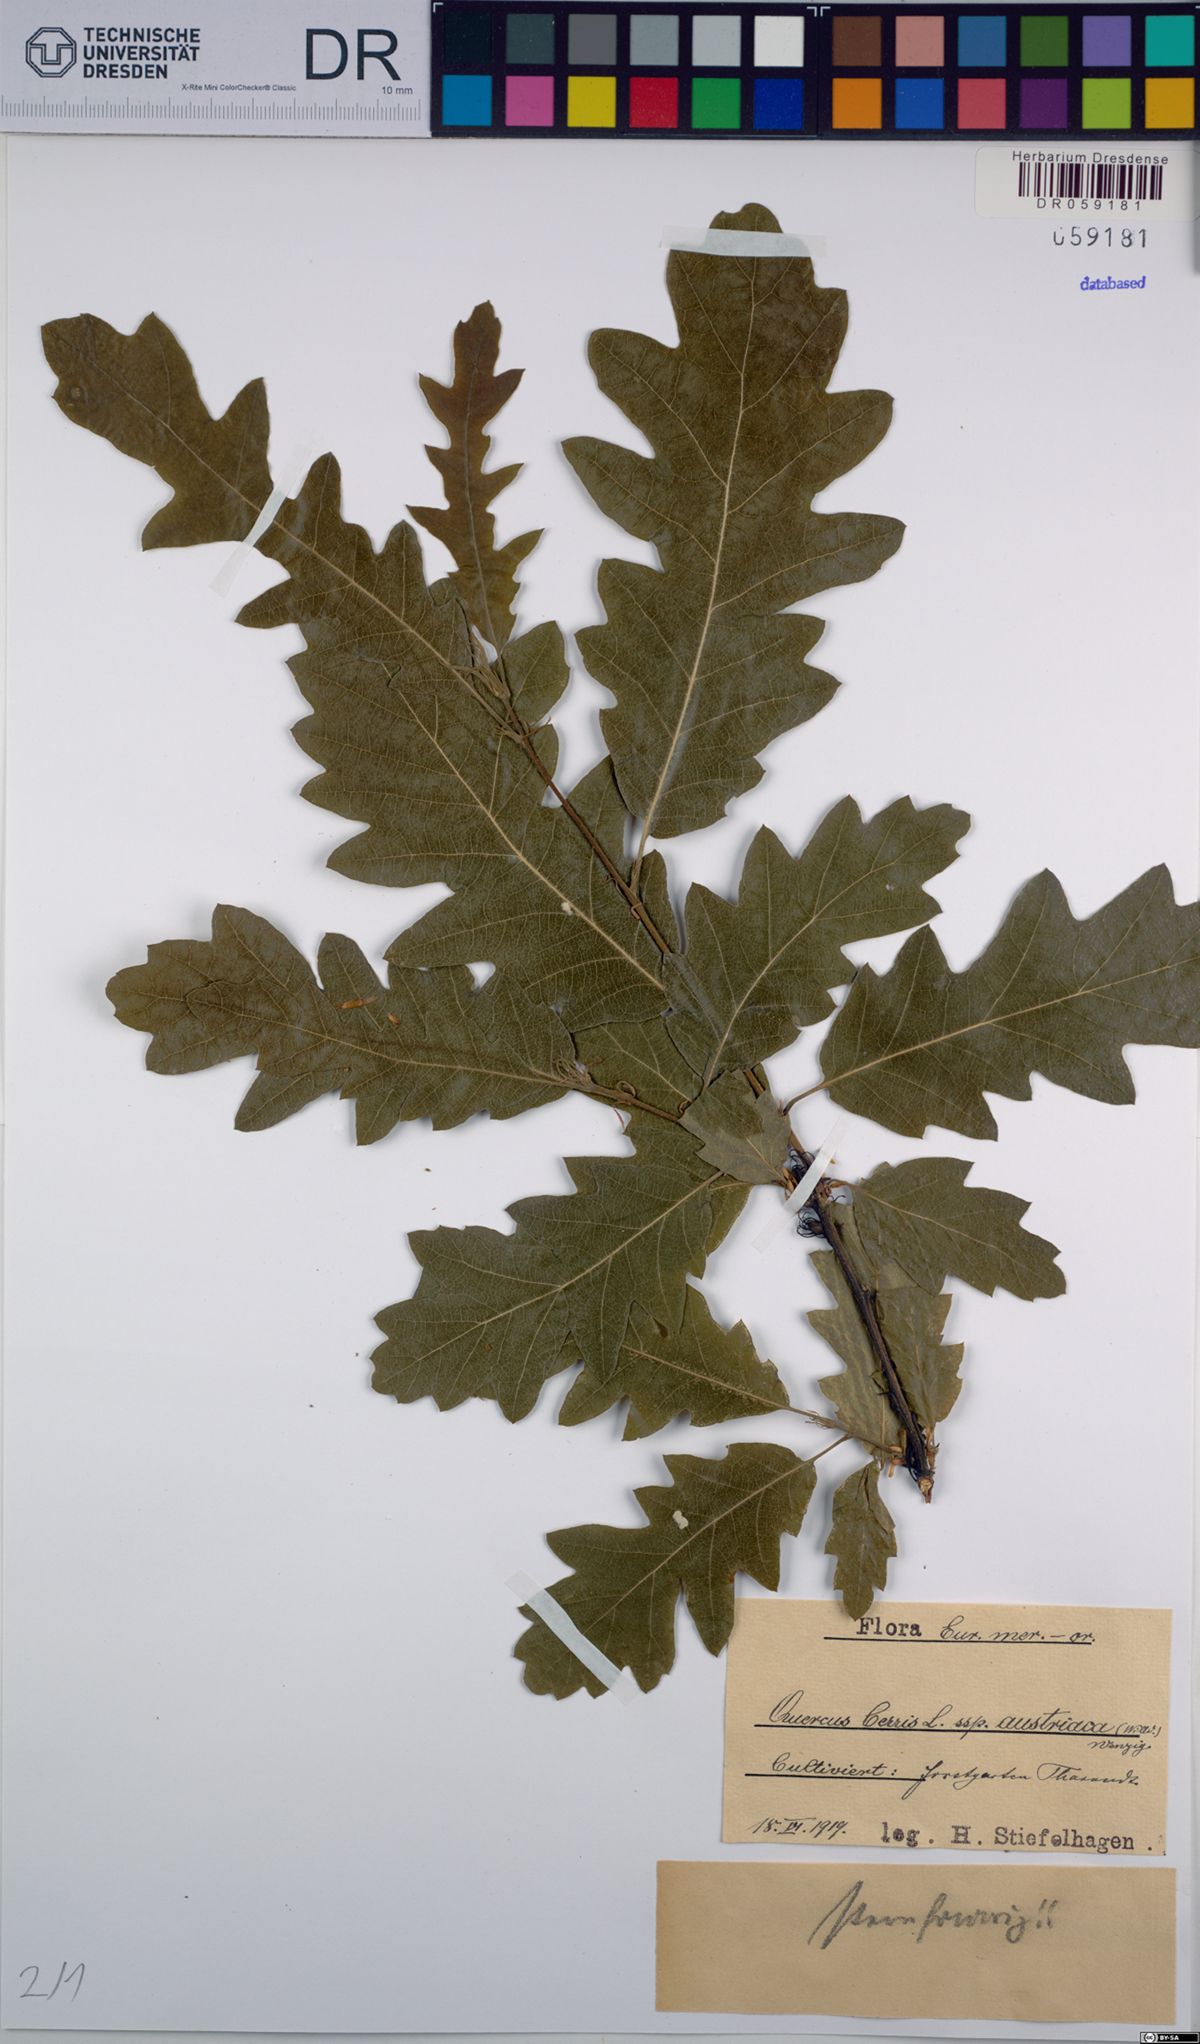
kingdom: Plantae
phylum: Tracheophyta
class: Magnoliopsida
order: Fagales
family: Fagaceae
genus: Quercus
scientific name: Quercus cerris
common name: Turkey oak
